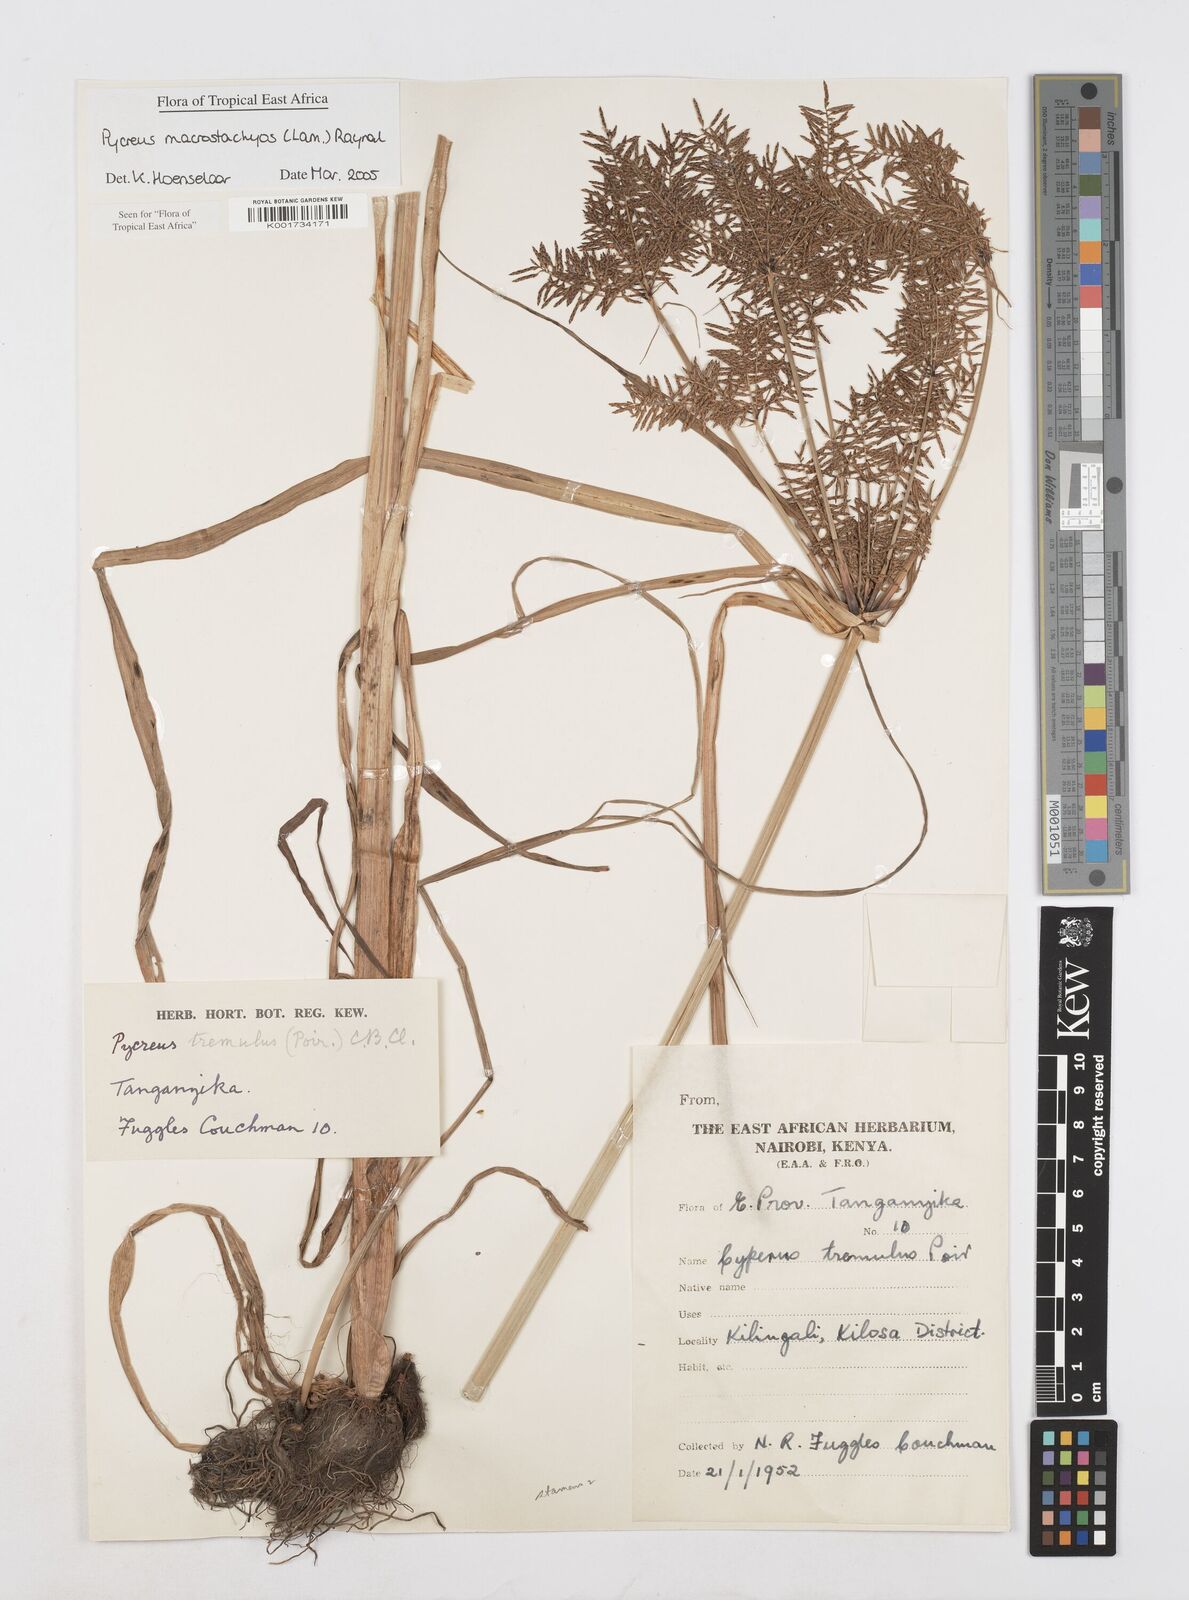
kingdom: Plantae
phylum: Tracheophyta
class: Liliopsida
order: Poales
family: Cyperaceae
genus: Cyperus
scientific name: Cyperus macrostachyos
